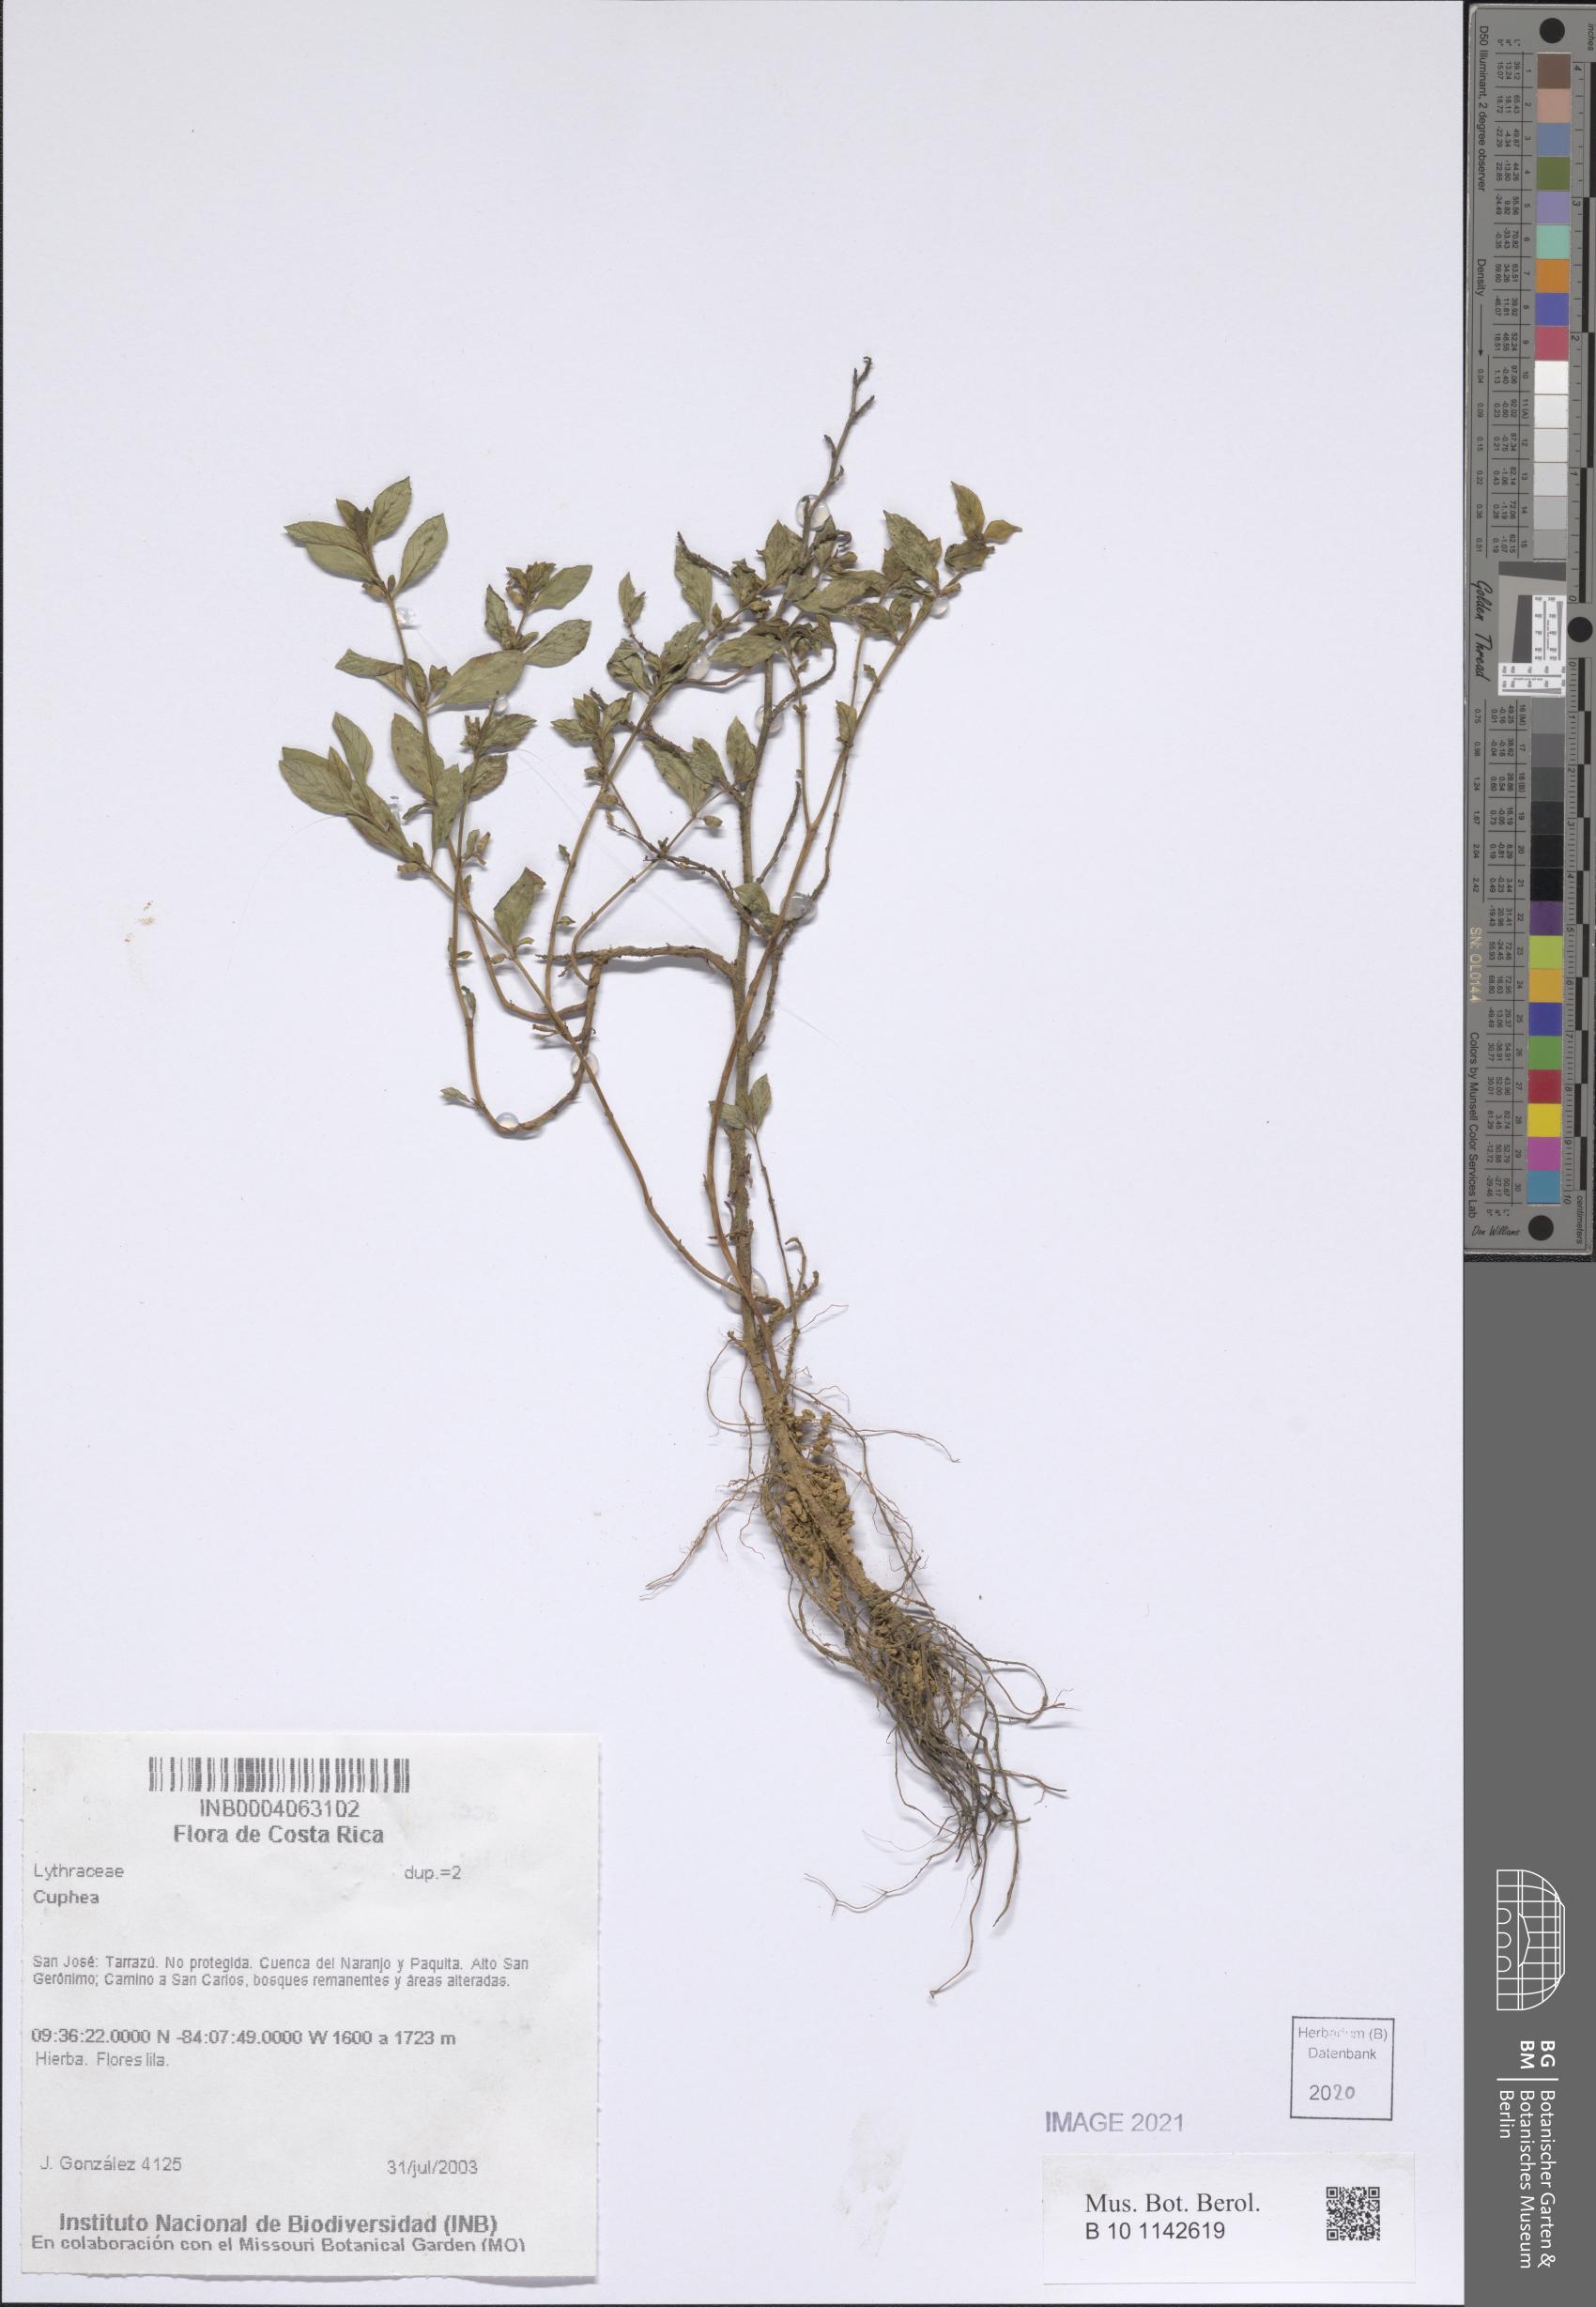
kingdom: Plantae
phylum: Tracheophyta
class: Magnoliopsida
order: Myrtales
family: Lythraceae
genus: Cuphea
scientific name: Cuphea
